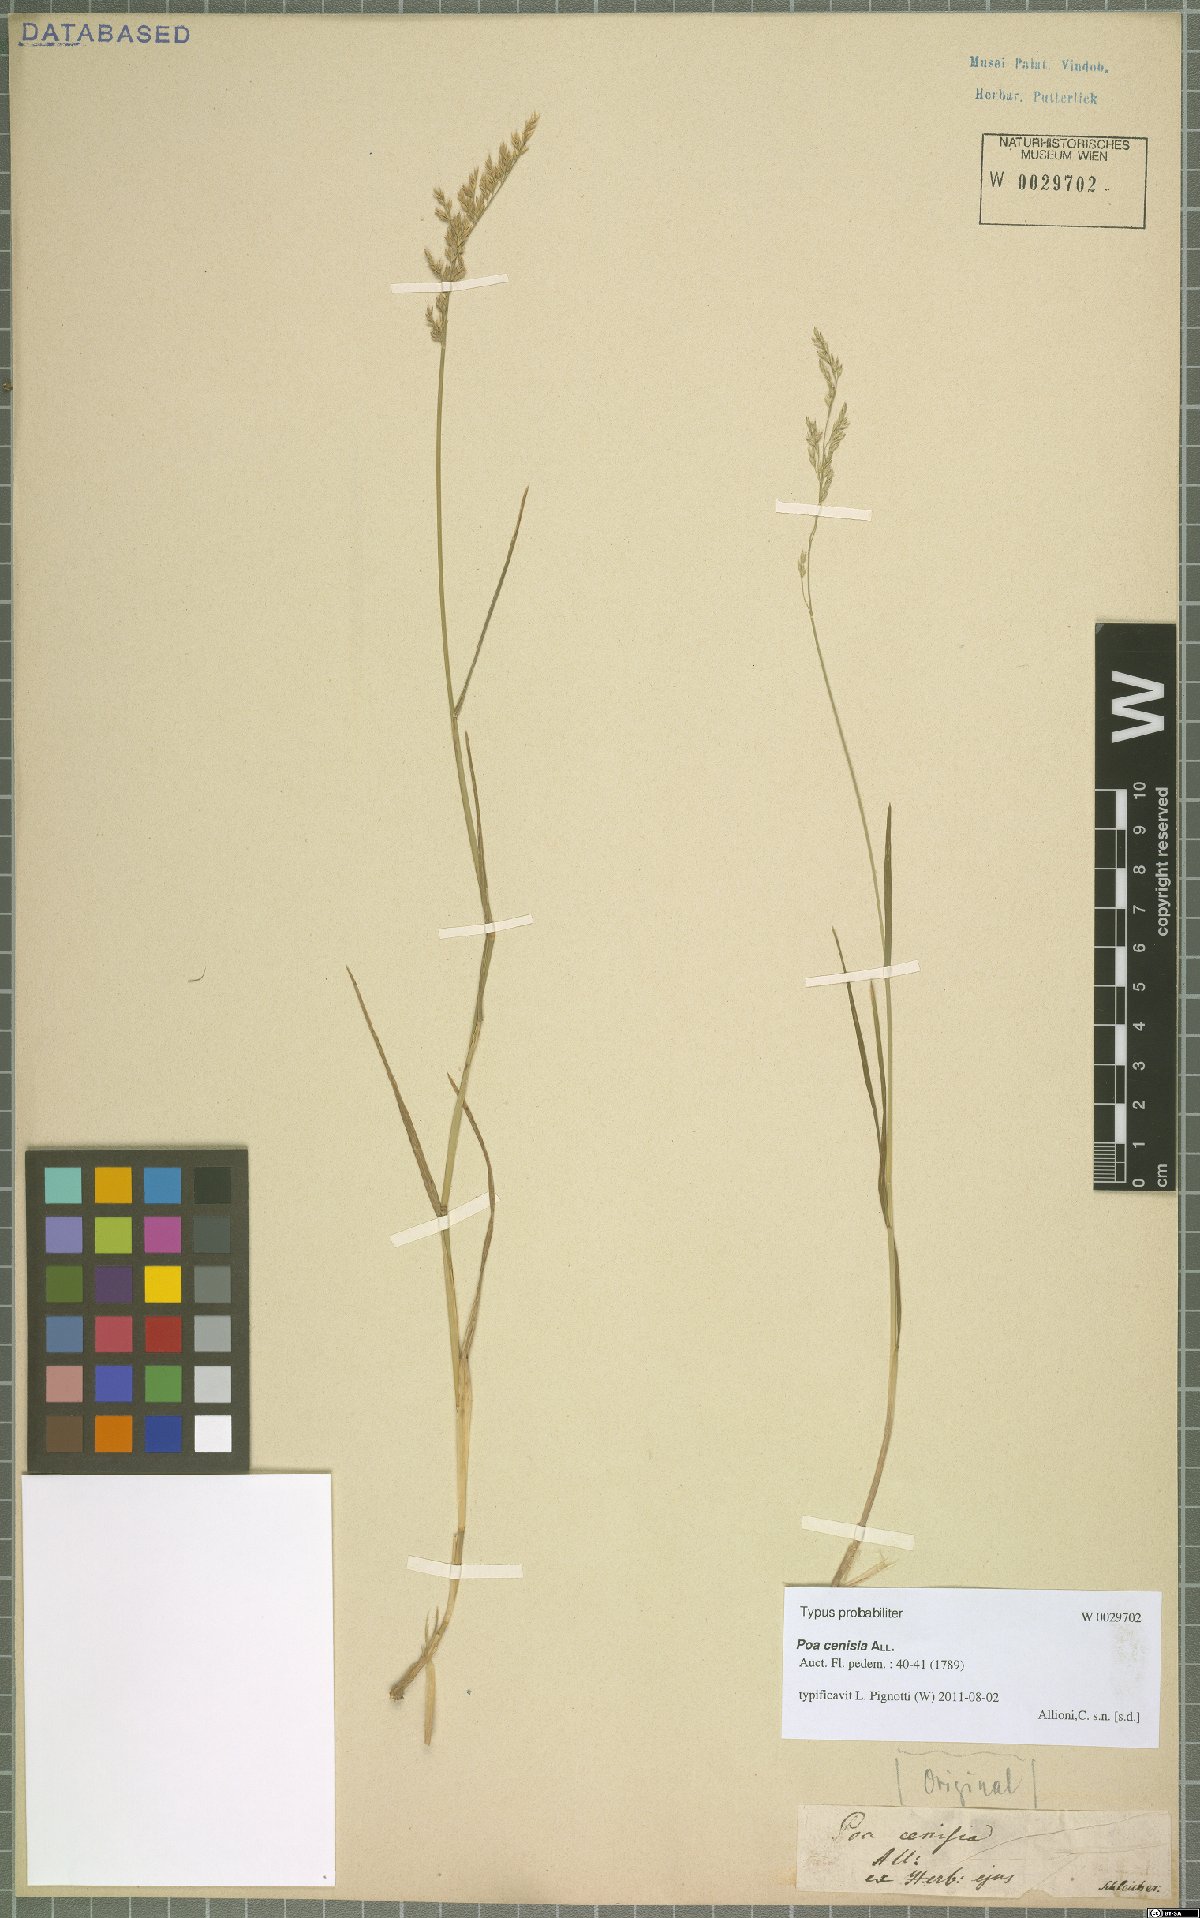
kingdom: Plantae
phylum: Tracheophyta
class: Liliopsida
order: Poales
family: Poaceae
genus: Poa
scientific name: Poa cenisia
